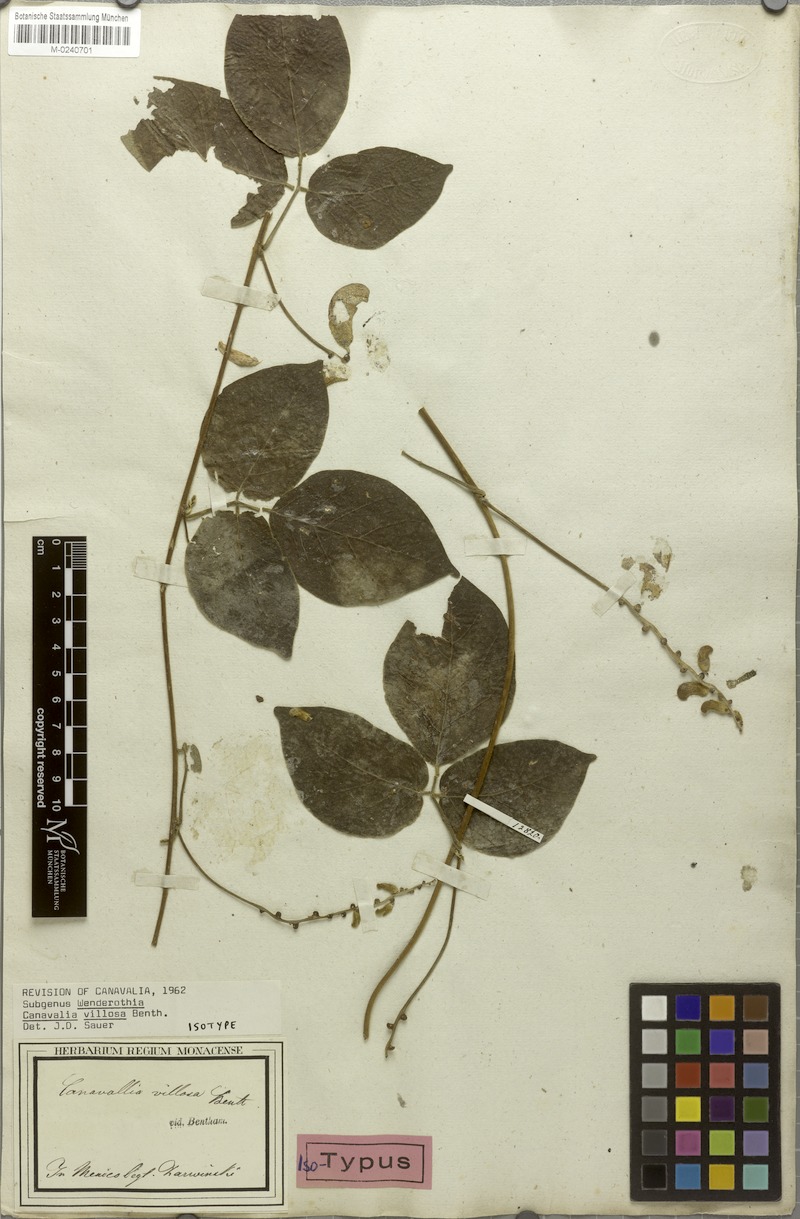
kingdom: Plantae
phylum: Tracheophyta
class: Magnoliopsida
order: Fabales
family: Fabaceae
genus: Canavalia
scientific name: Canavalia villosa
